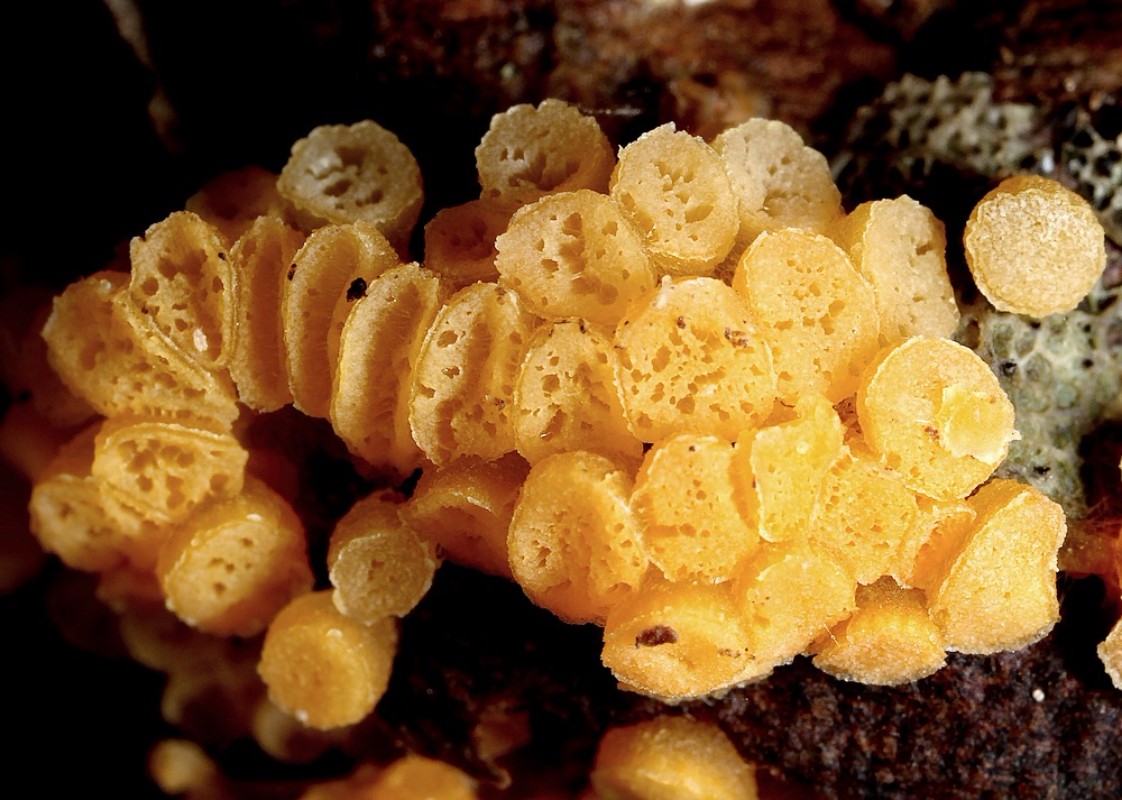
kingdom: Fungi
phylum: Ascomycota
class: Pezizomycetes
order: Pezizales
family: Pyronemataceae
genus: Byssonectria
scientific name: Byssonectria terrestris
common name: hjortebæger
